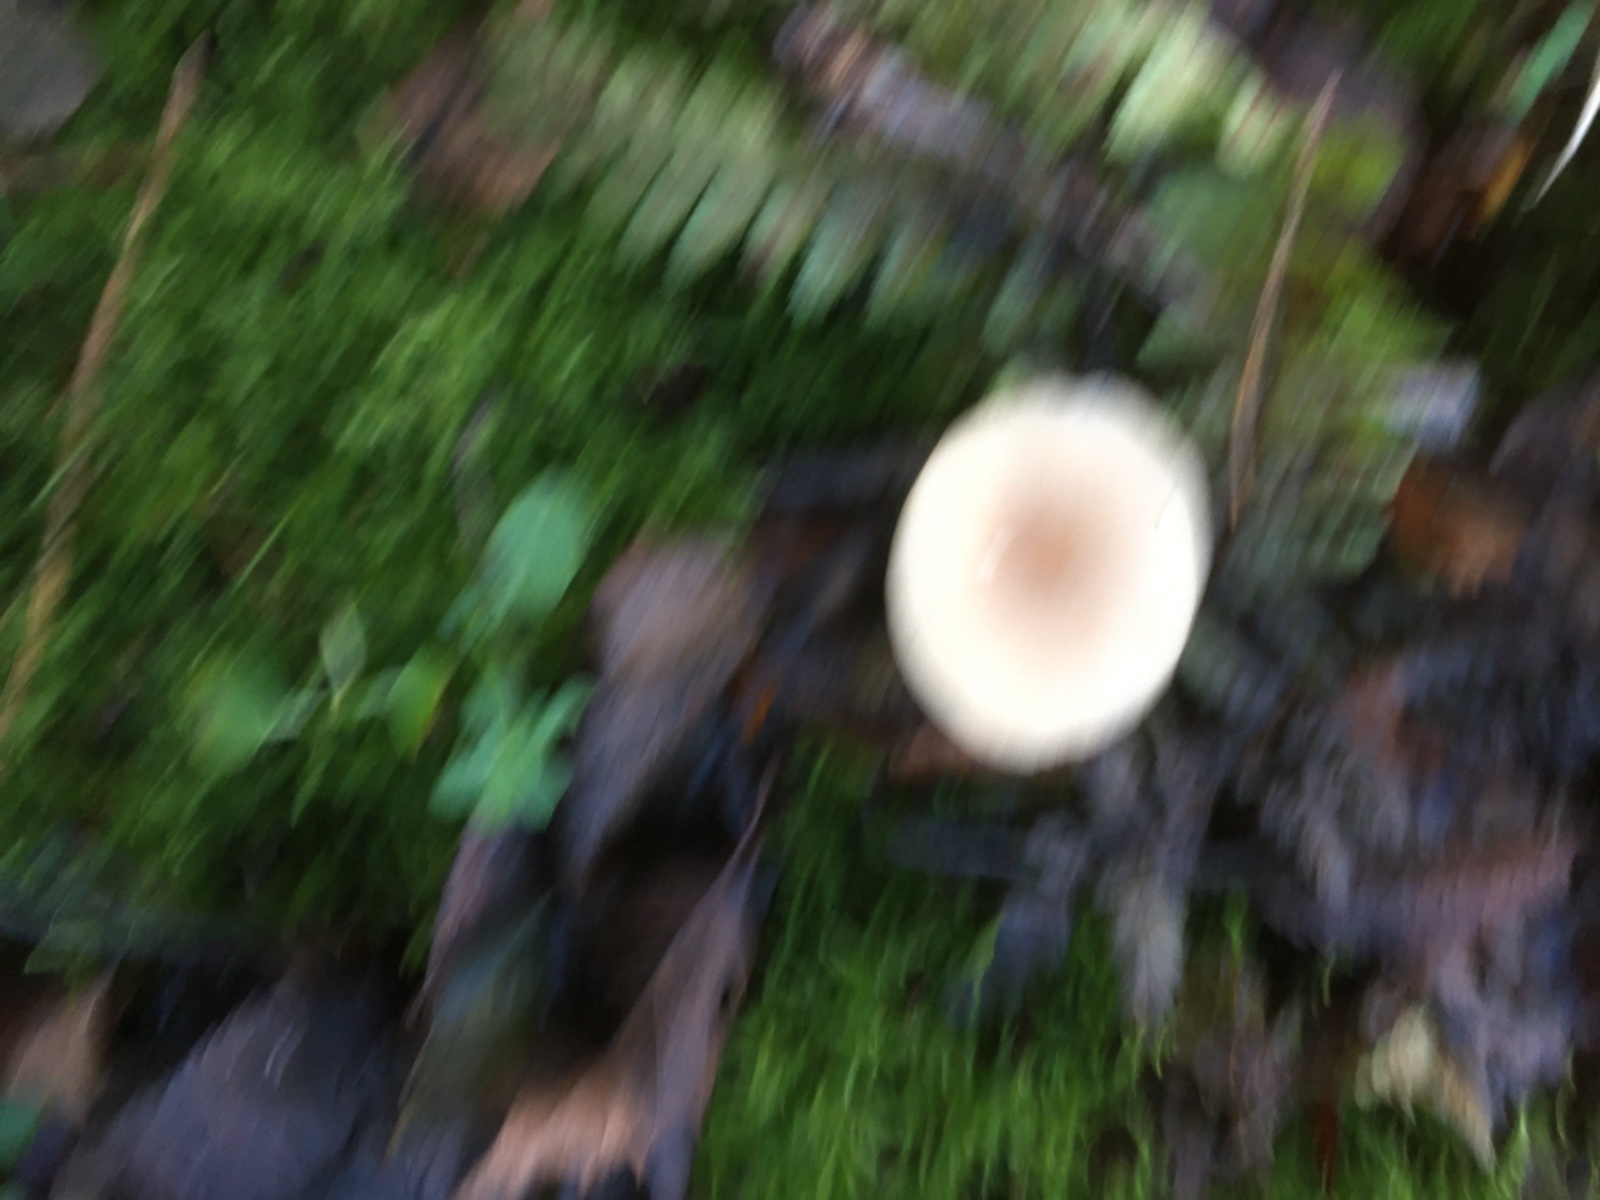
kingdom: Fungi
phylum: Basidiomycota
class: Agaricomycetes
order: Agaricales
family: Tricholomataceae
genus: Clitocybe
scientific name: Clitocybe fragrans
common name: vellugtende tragthat
